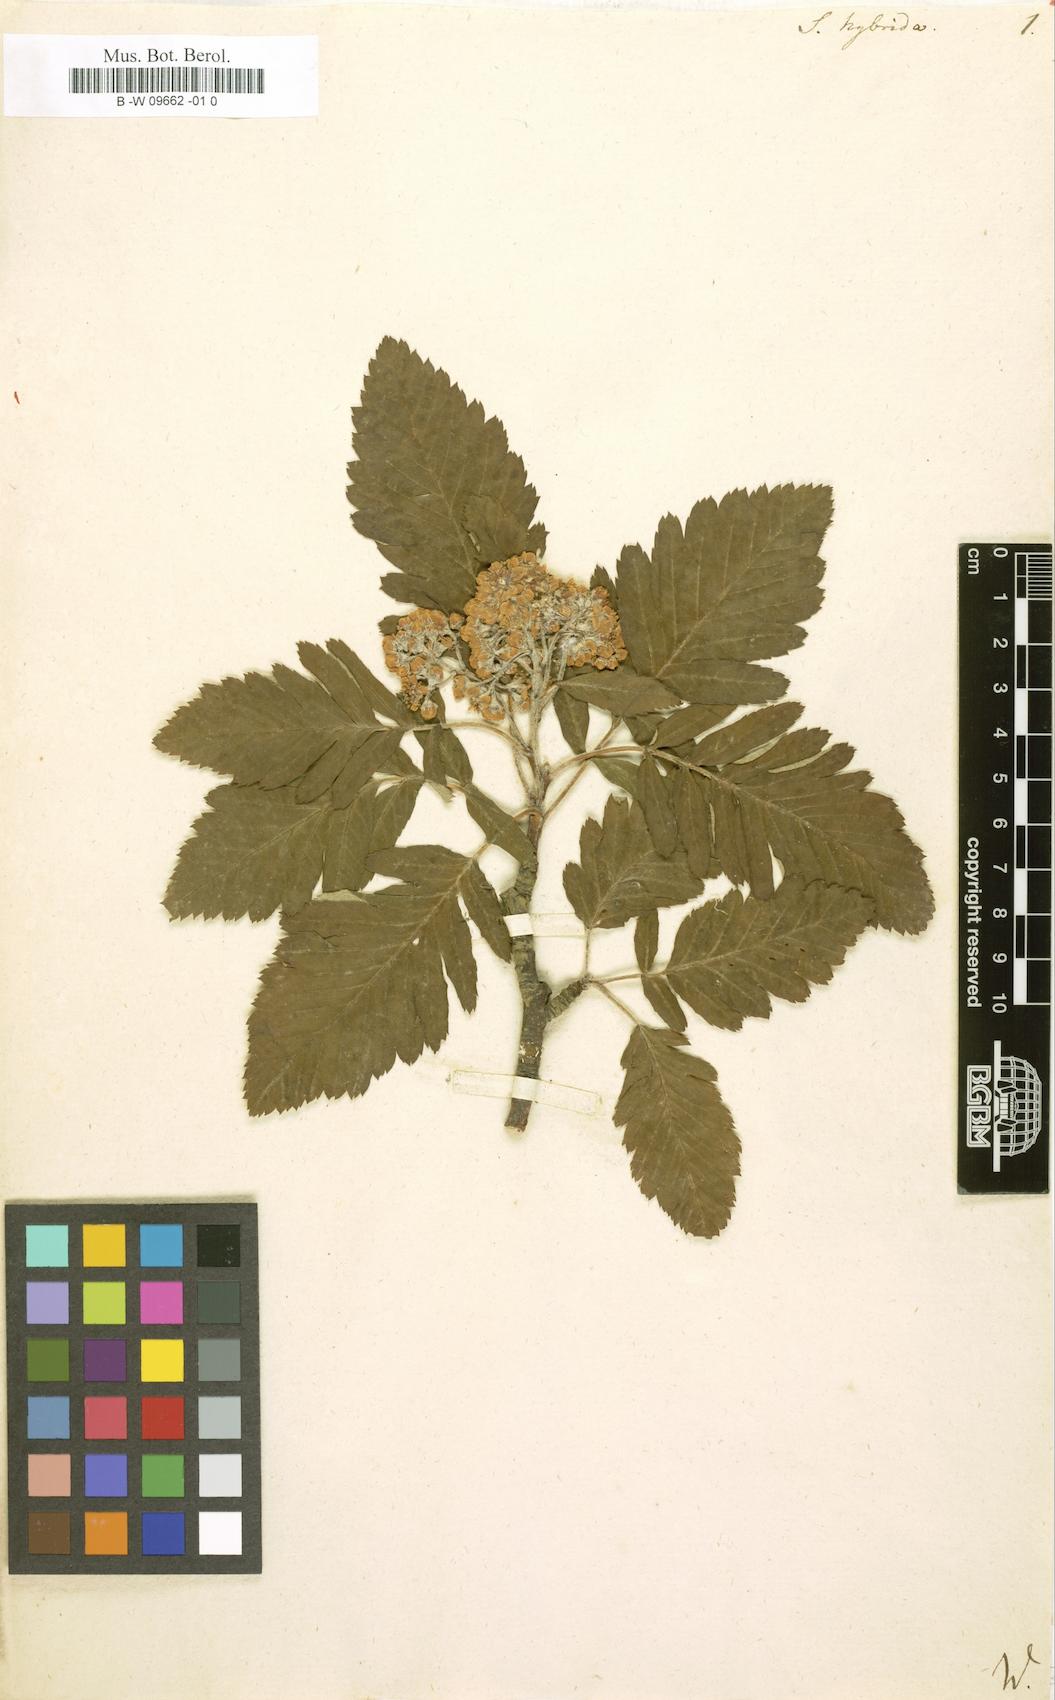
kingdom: Plantae
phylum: Tracheophyta
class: Magnoliopsida
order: Rosales
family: Rosaceae
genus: Hedlundia
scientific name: Hedlundia
